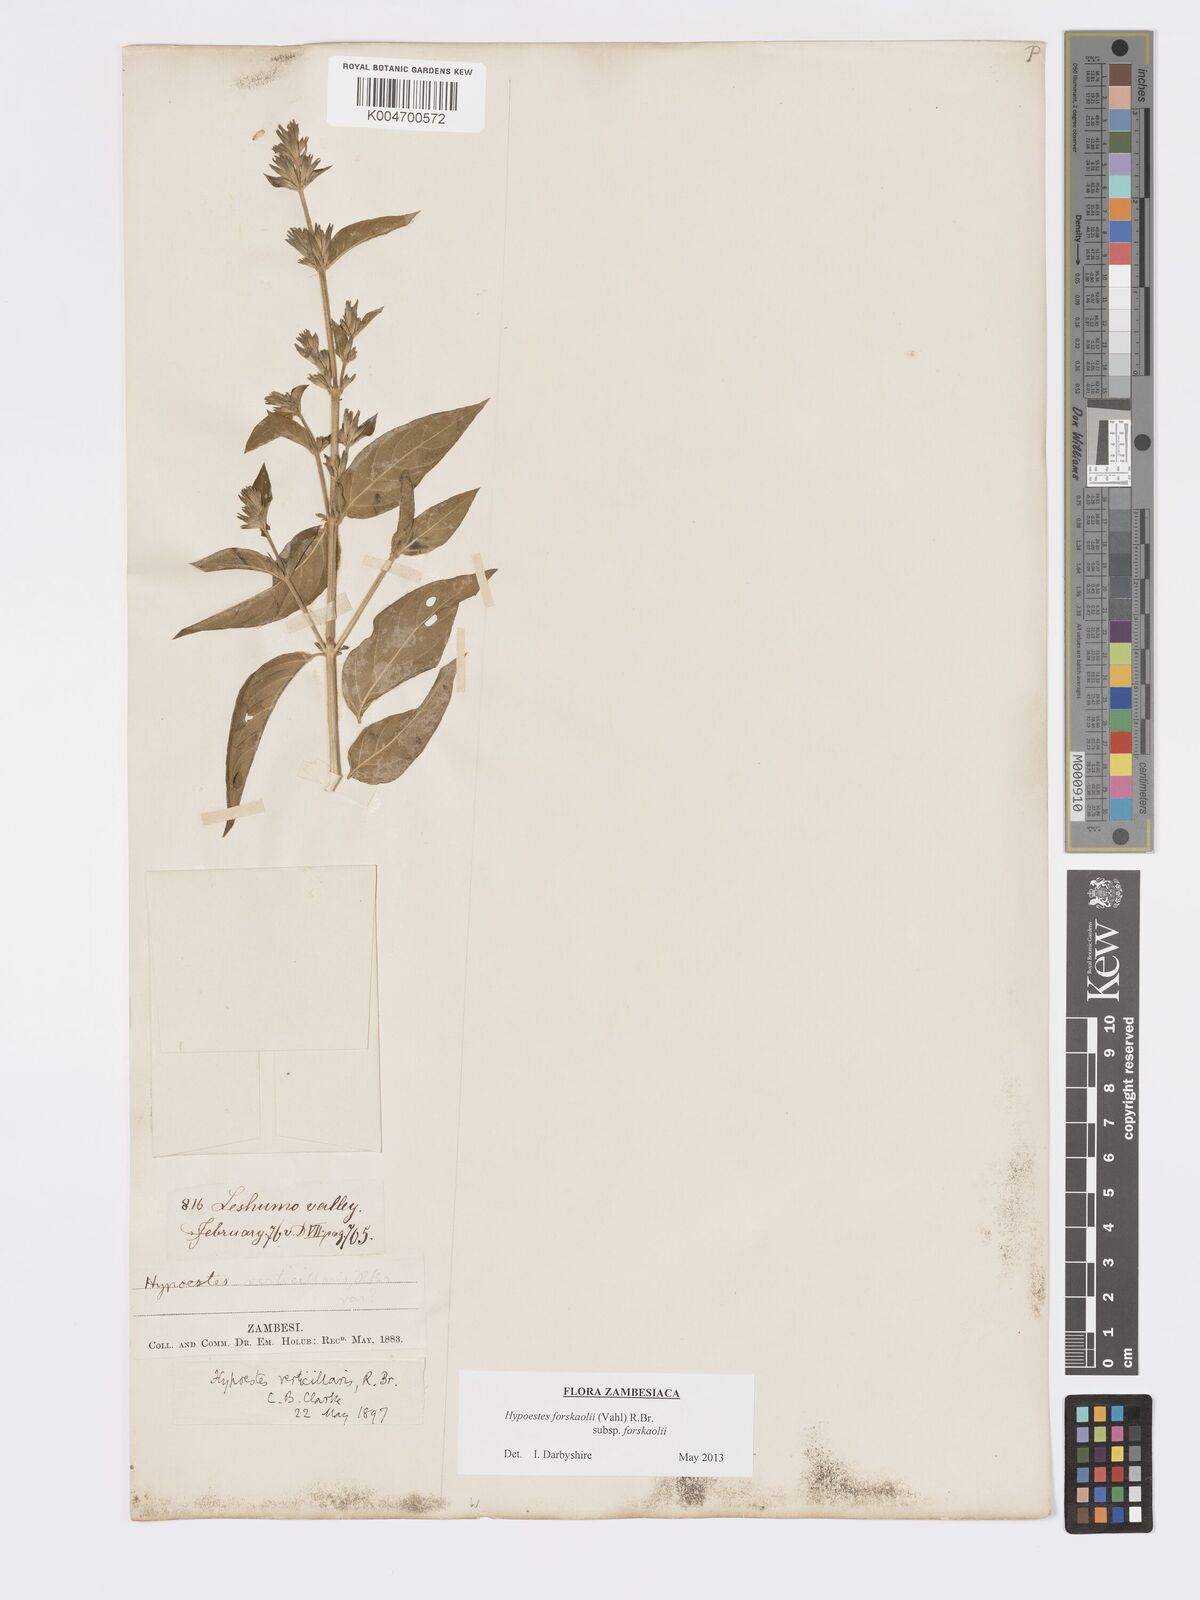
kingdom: Plantae
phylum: Tracheophyta
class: Magnoliopsida
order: Lamiales
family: Acanthaceae
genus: Hypoestes
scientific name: Hypoestes forskaolii
